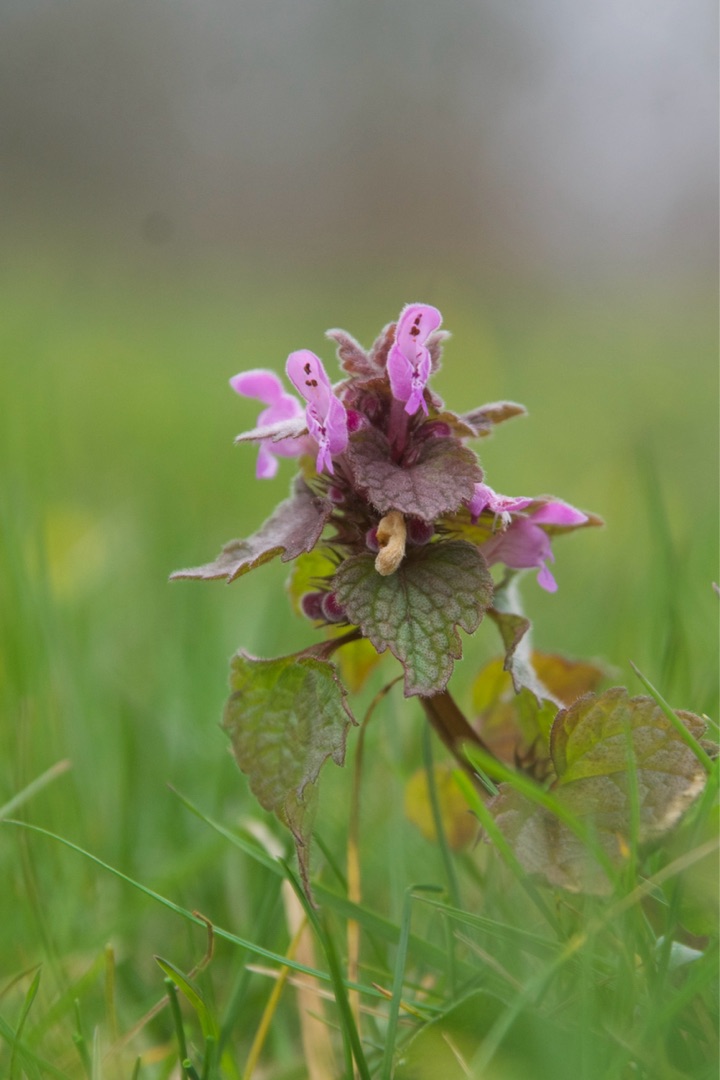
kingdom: Plantae
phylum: Tracheophyta
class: Magnoliopsida
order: Lamiales
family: Lamiaceae
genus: Lamium
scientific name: Lamium purpureum
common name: Rød tvetand
